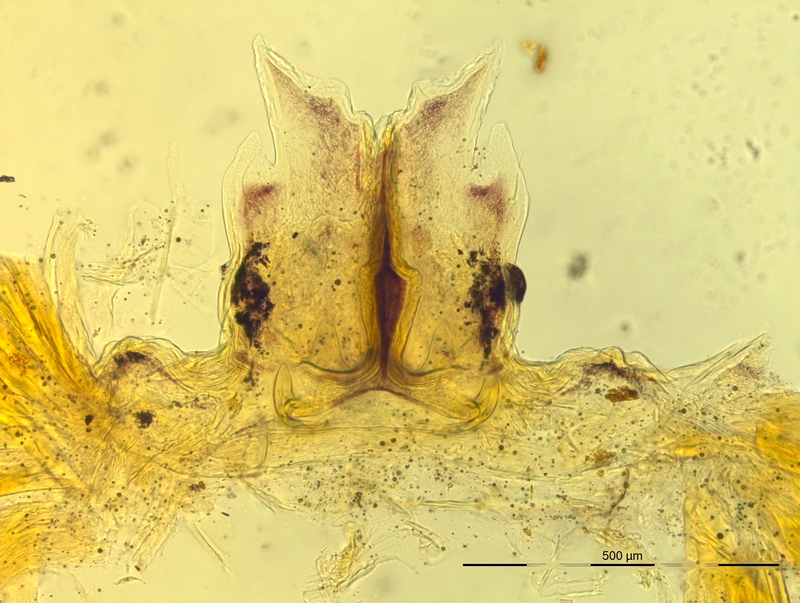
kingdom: Animalia
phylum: Arthropoda
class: Diplopoda
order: Chordeumatida
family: Craspedosomatidae
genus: Bergamosoma
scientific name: Bergamosoma sevini
